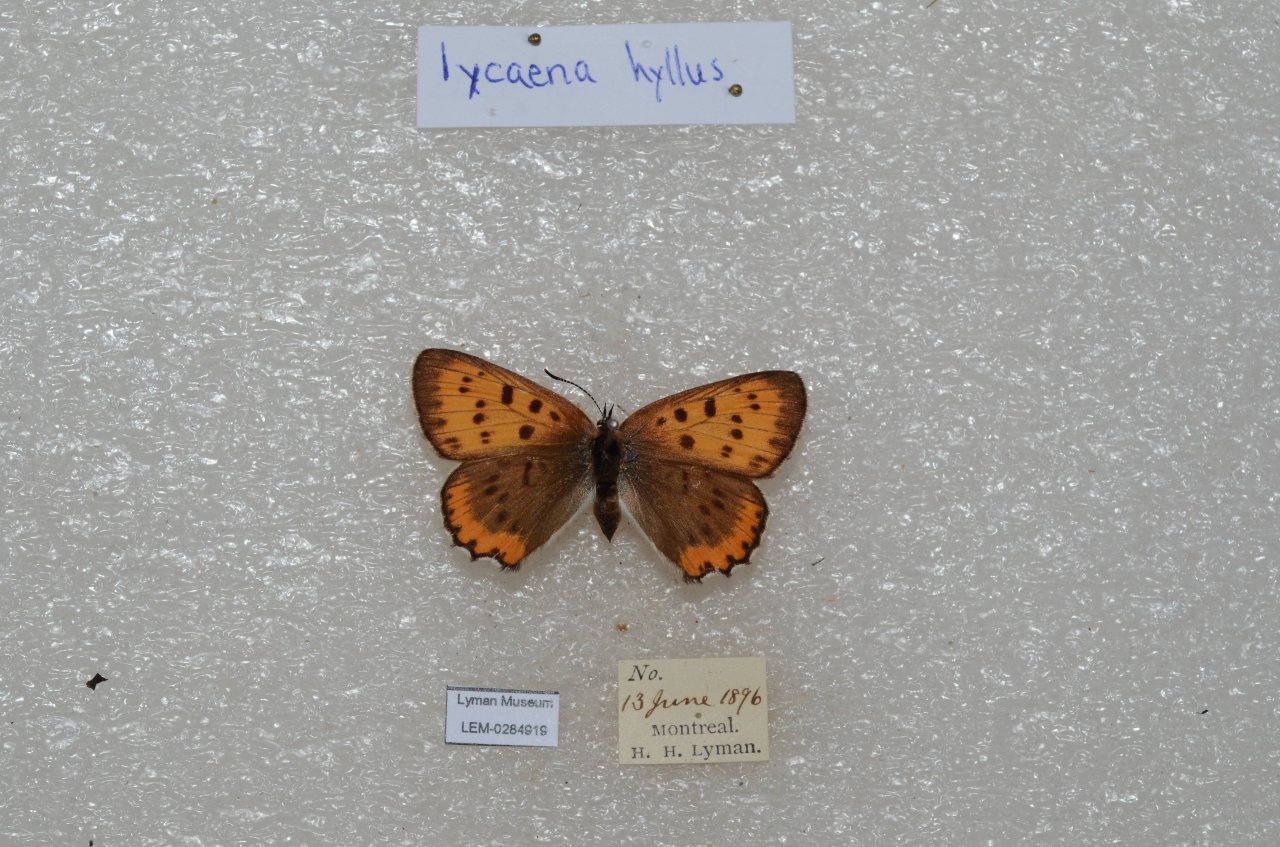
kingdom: Animalia
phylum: Arthropoda
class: Insecta
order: Lepidoptera
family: Sesiidae
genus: Sesia
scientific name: Sesia Lycaena hyllus
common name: Bronze Copper
